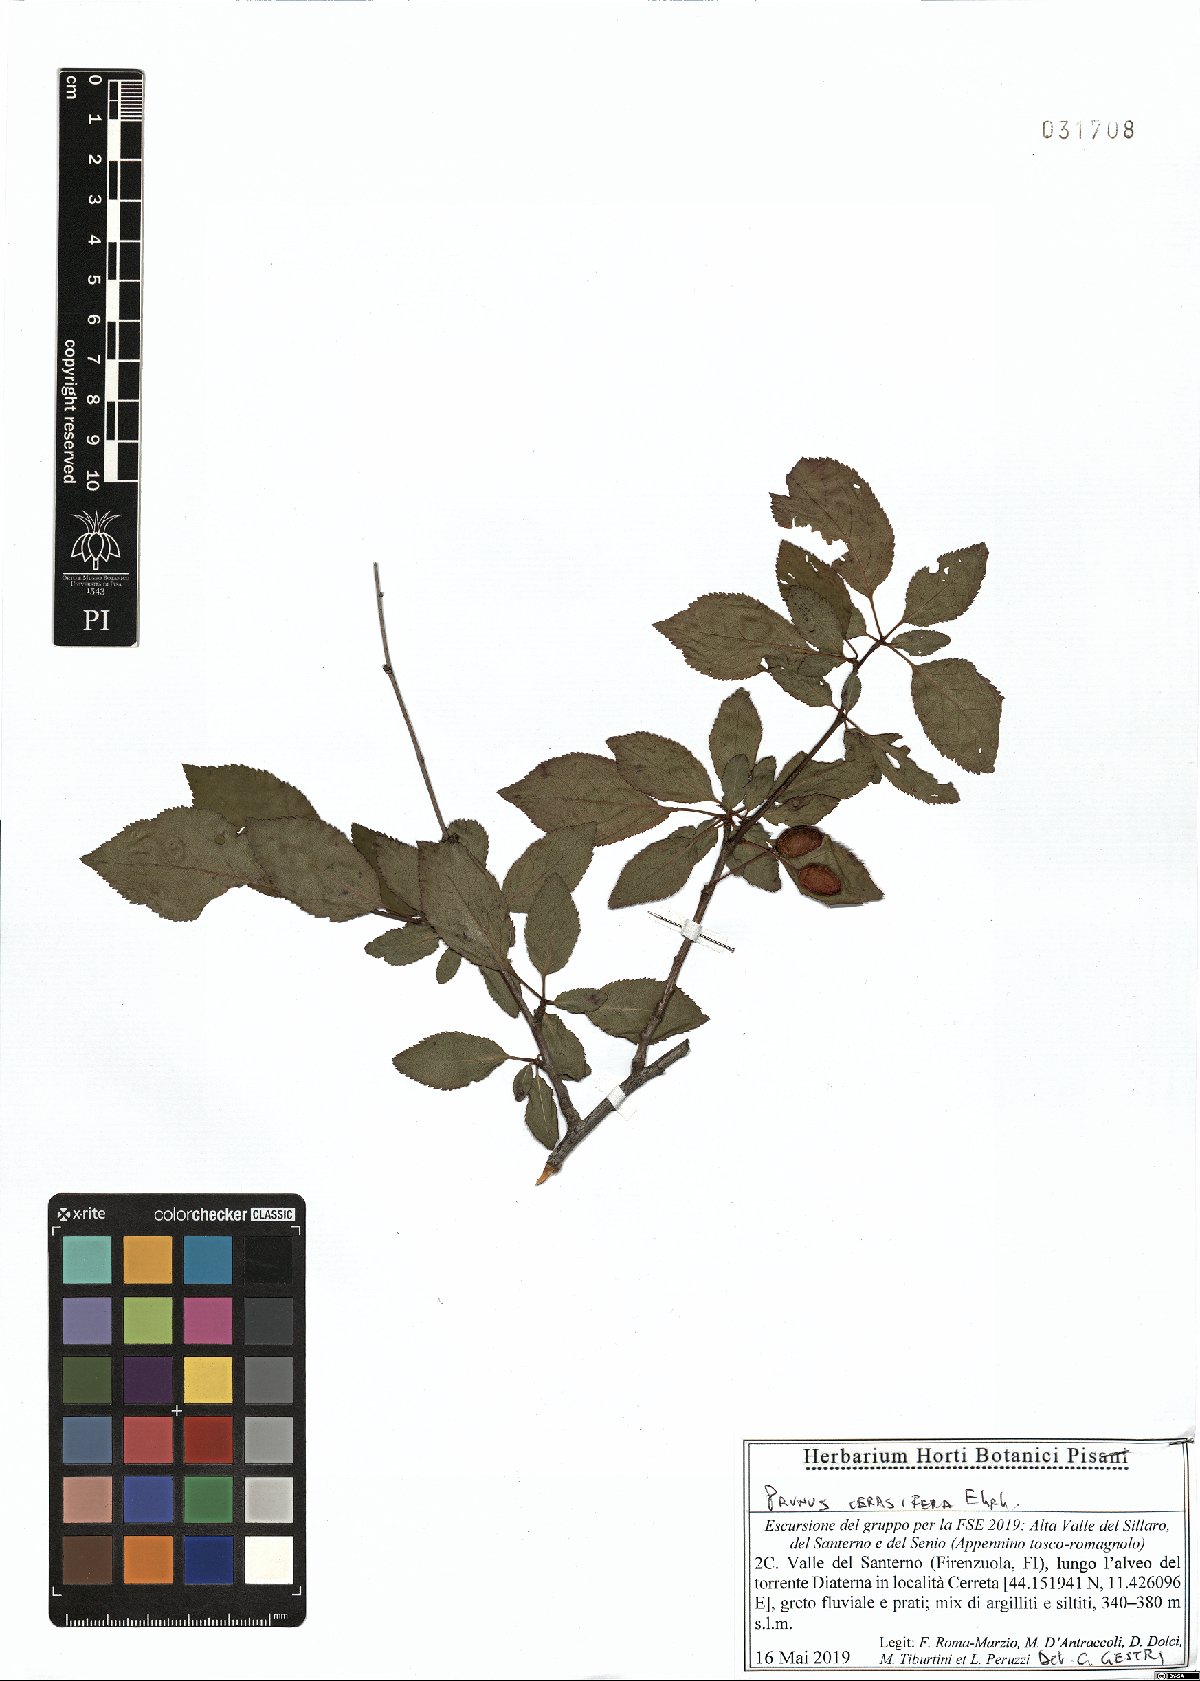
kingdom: Plantae
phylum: Tracheophyta
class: Magnoliopsida
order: Rosales
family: Rosaceae
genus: Prunus
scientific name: Prunus cerasifera
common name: Cherry plum
